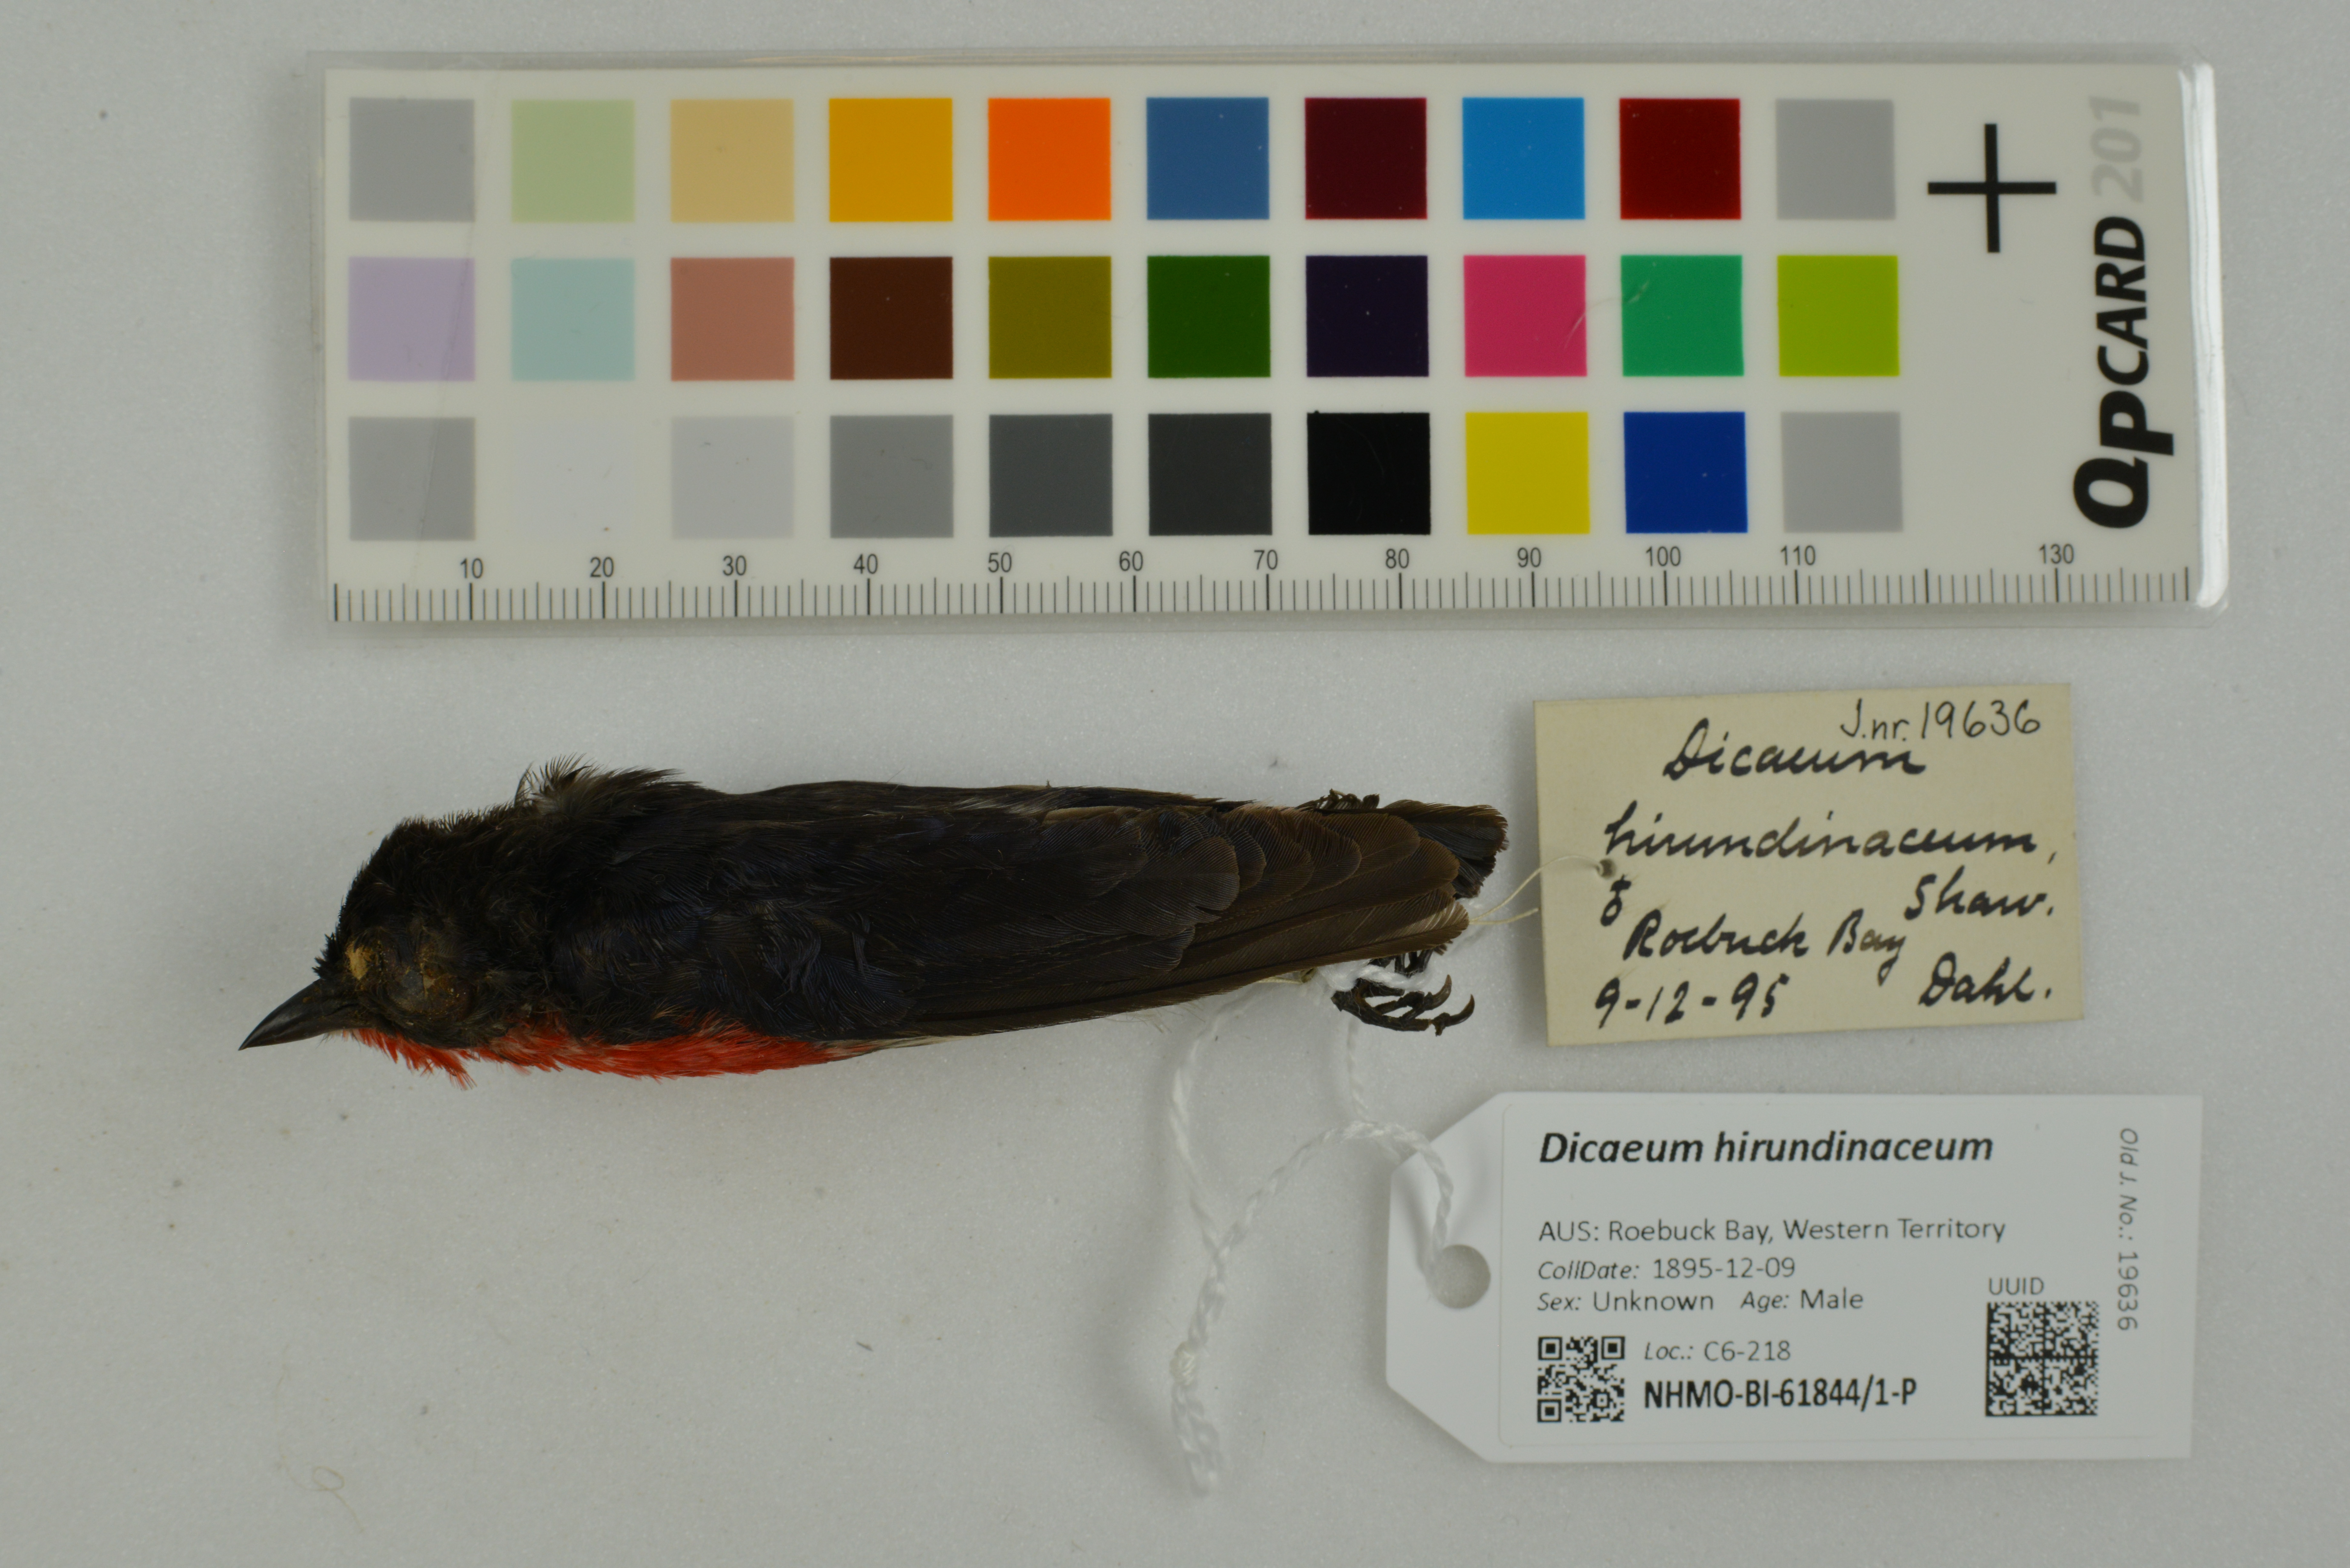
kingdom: Animalia
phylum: Chordata
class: Aves
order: Passeriformes
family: Dicaeidae
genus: Dicaeum
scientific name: Dicaeum hirundinaceum
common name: Mistletoebird
